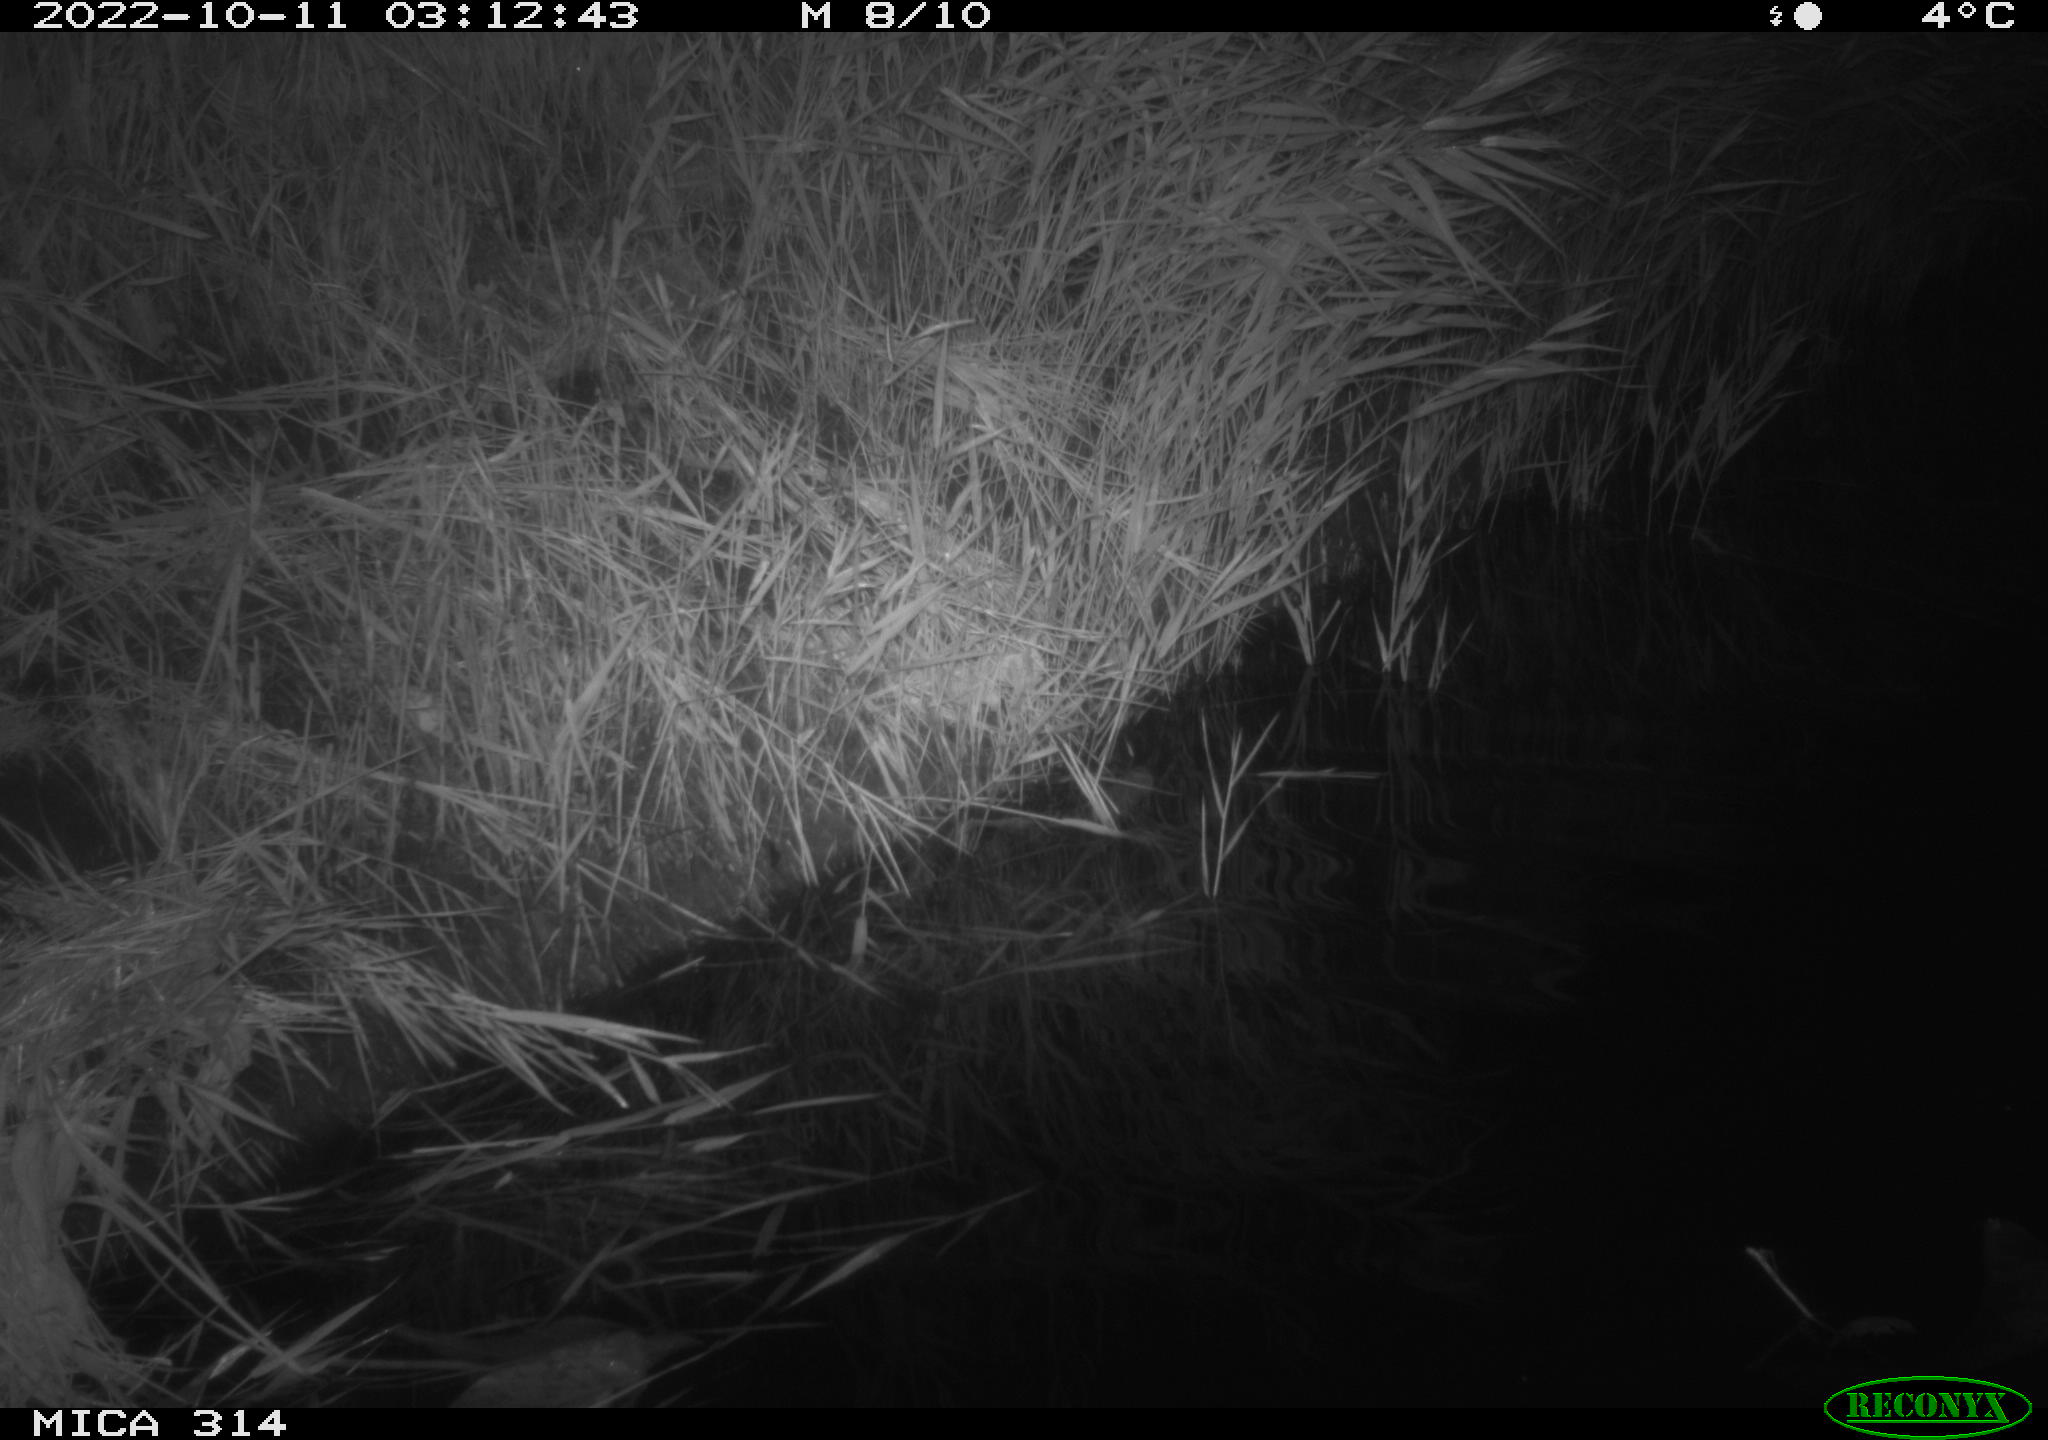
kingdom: Animalia
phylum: Chordata
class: Mammalia
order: Rodentia
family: Cricetidae
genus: Ondatra
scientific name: Ondatra zibethicus
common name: Muskrat
